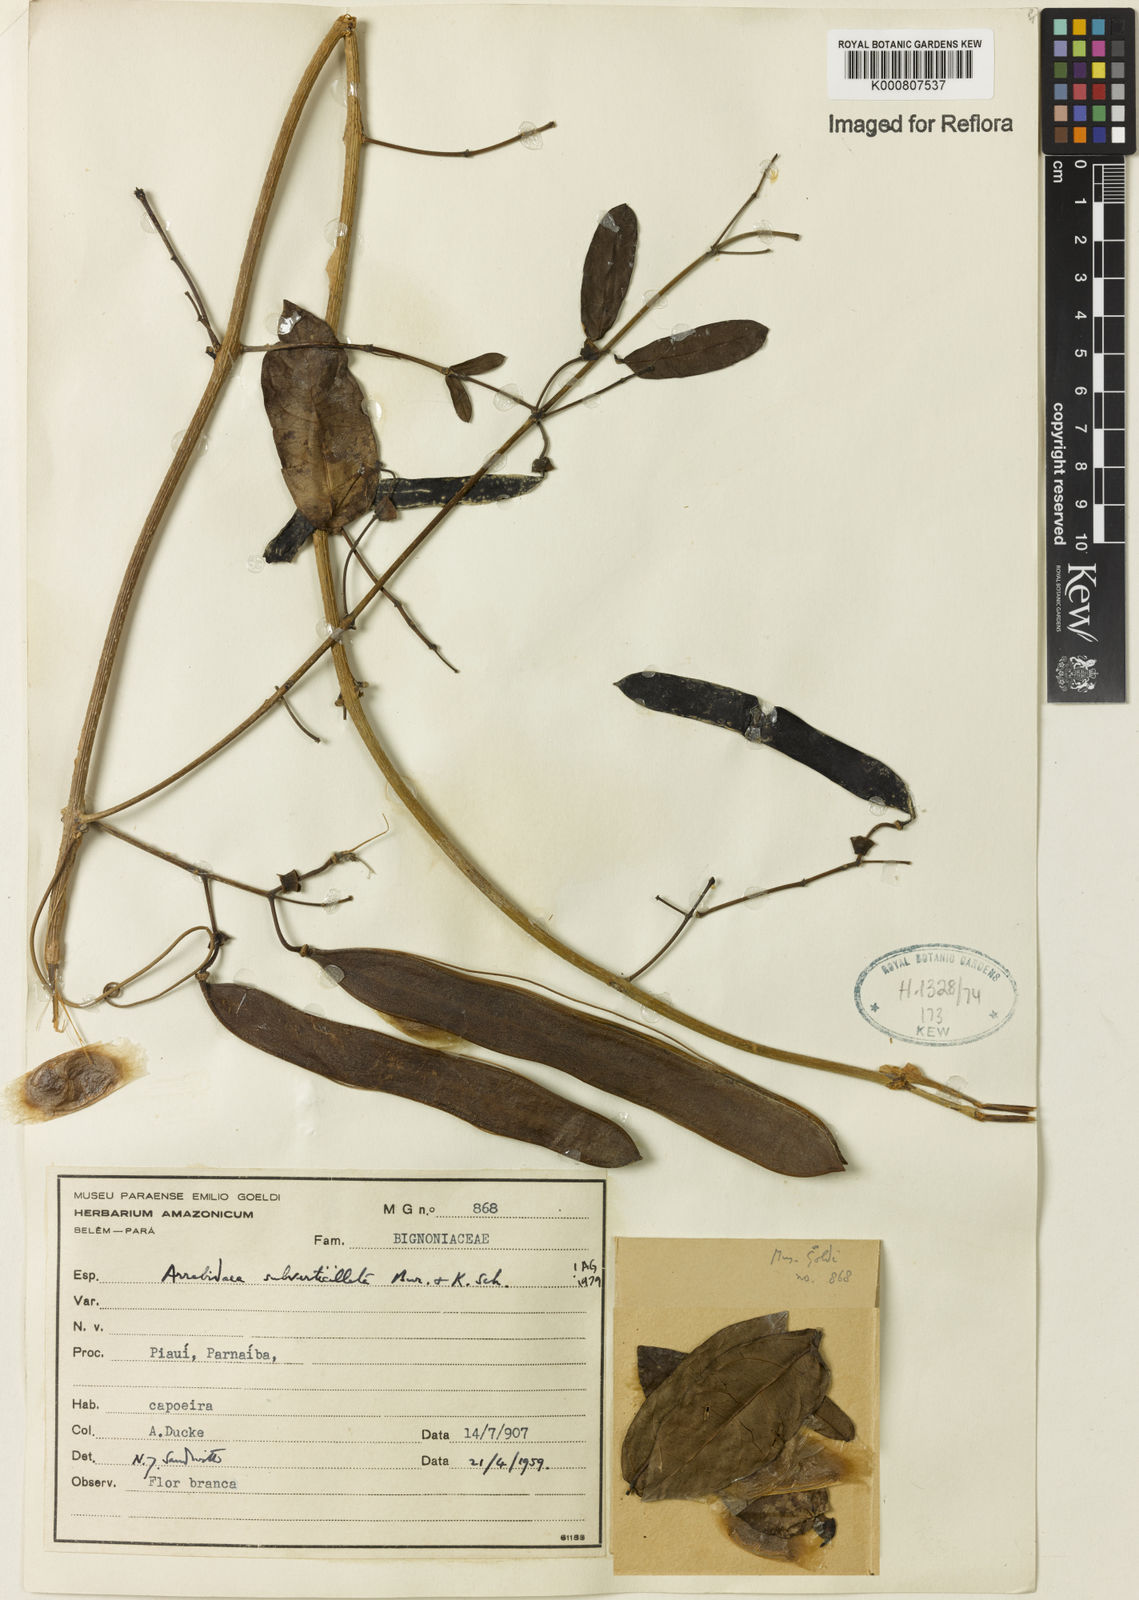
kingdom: Plantae
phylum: Tracheophyta
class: Magnoliopsida
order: Lamiales
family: Bignoniaceae
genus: Fridericia
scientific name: Fridericia subverticillata
